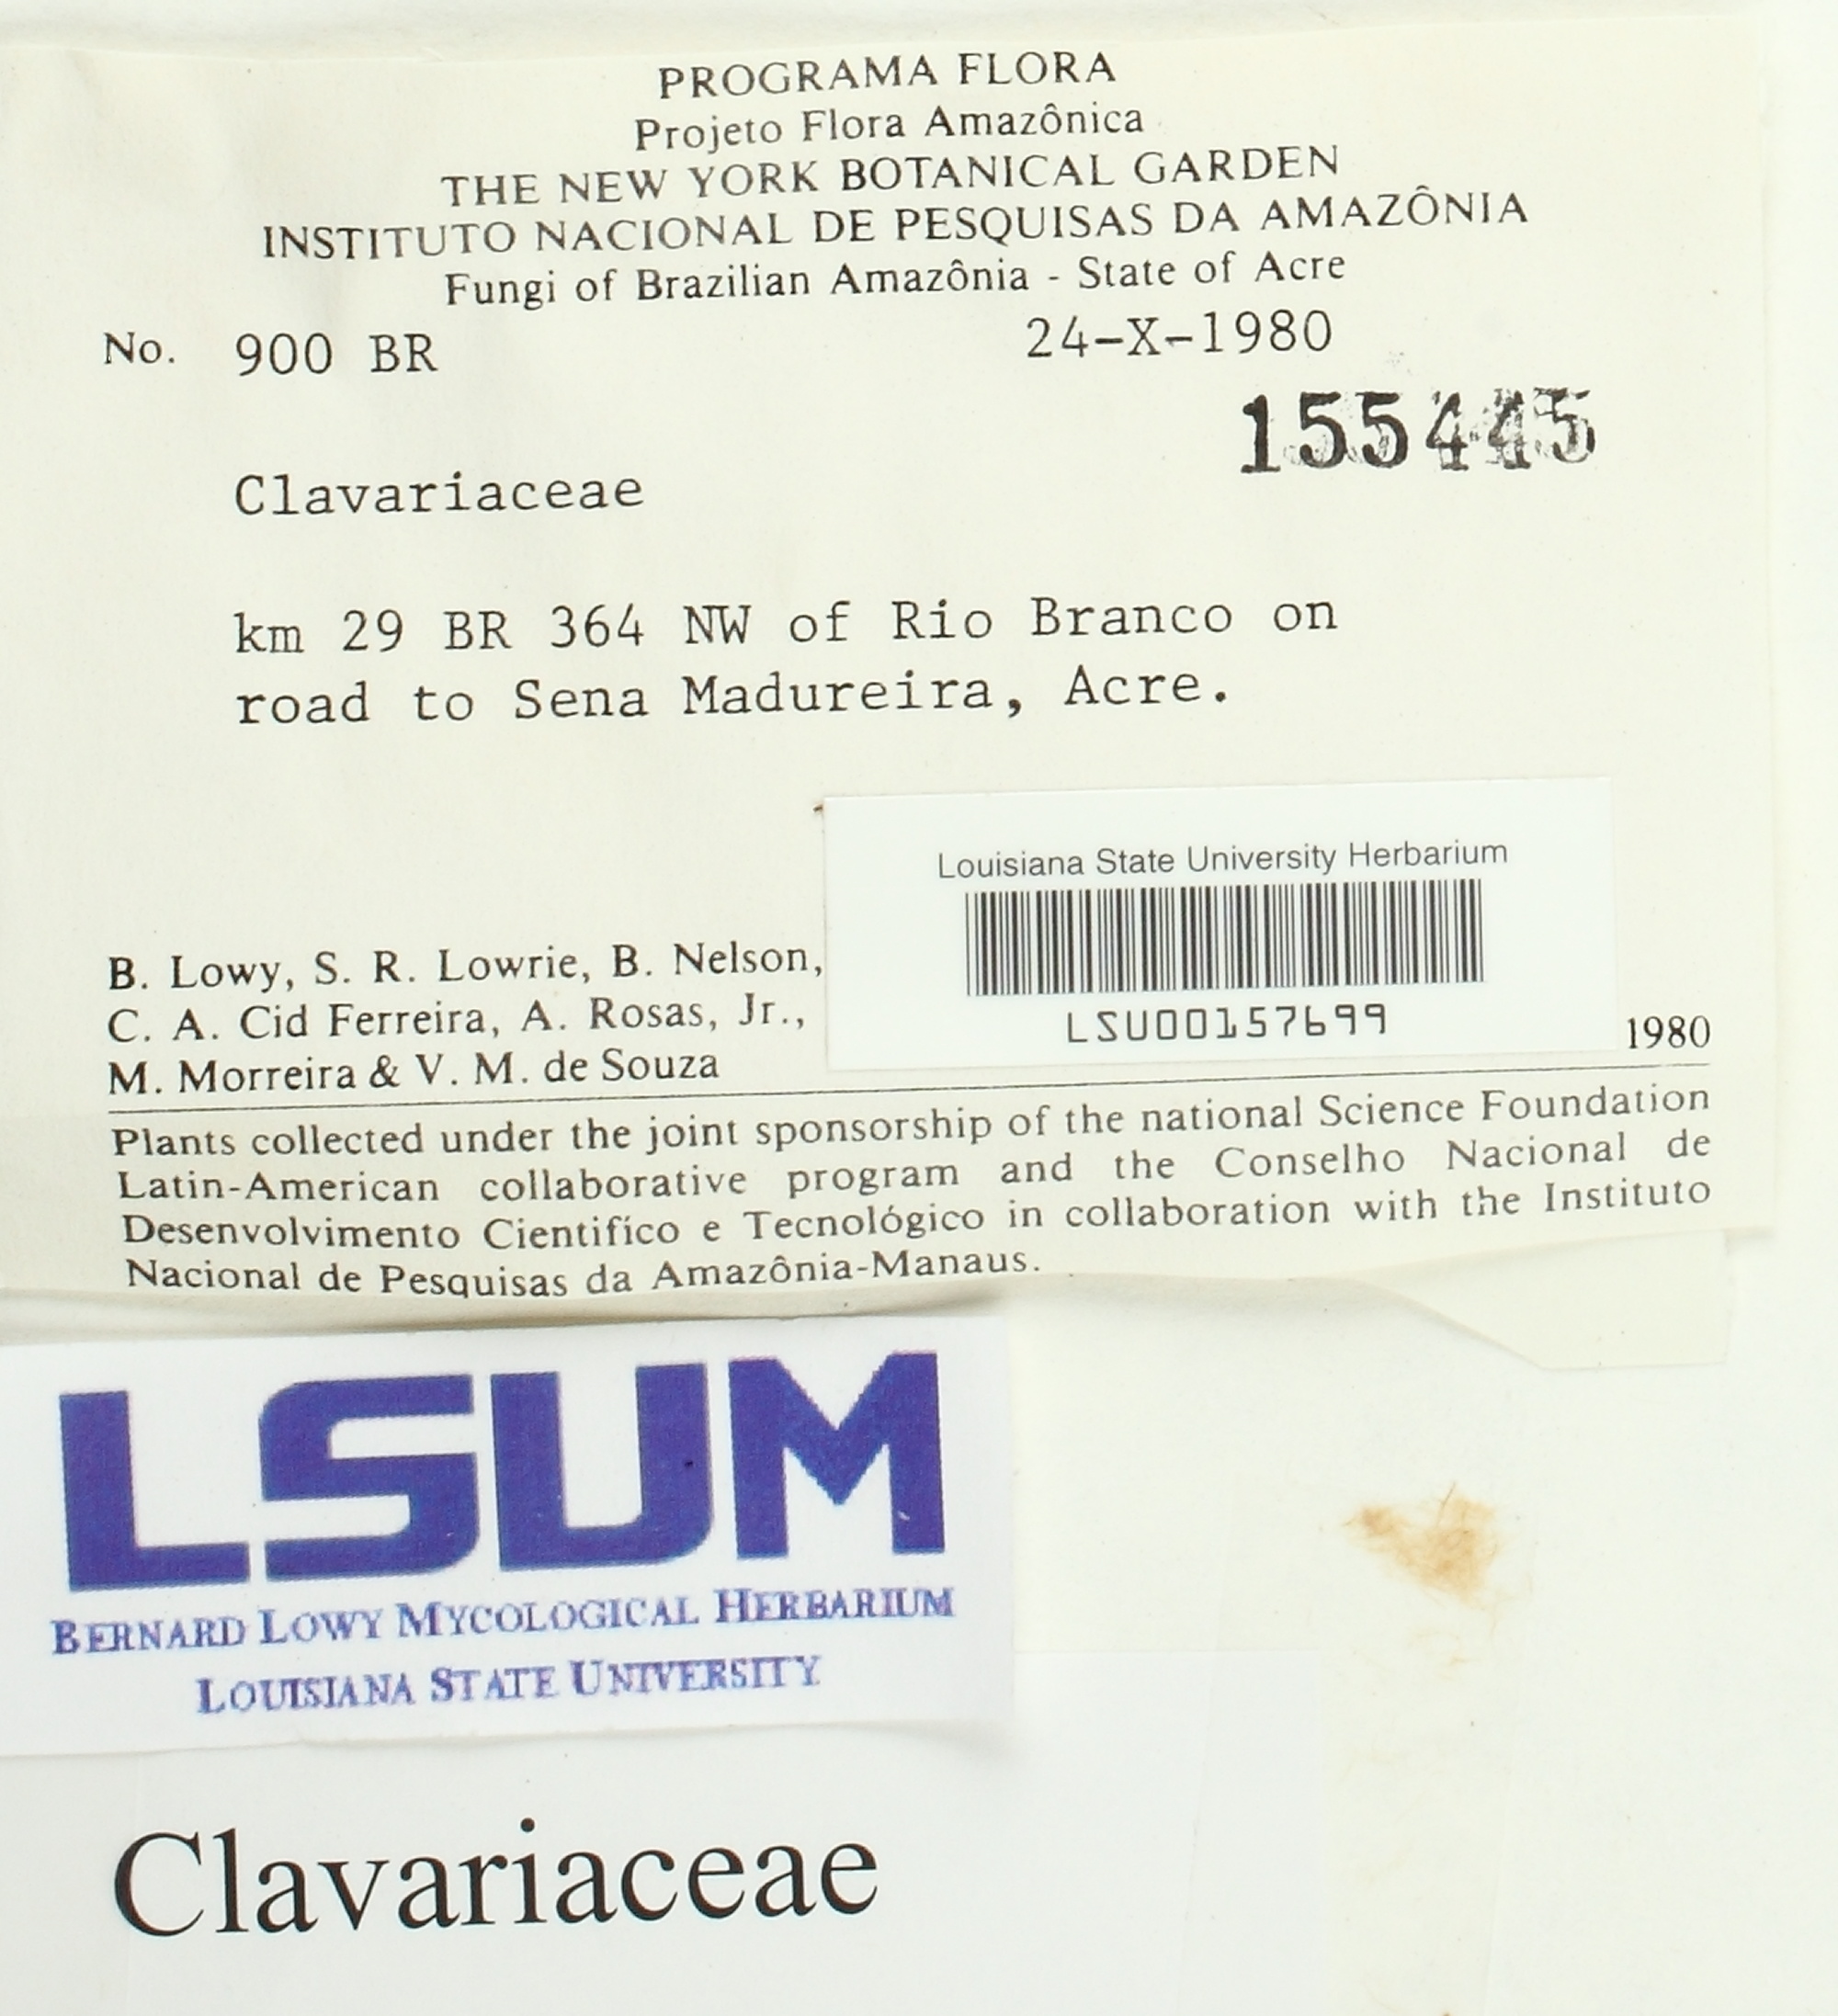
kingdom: Fungi
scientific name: Fungi
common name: Fungi
